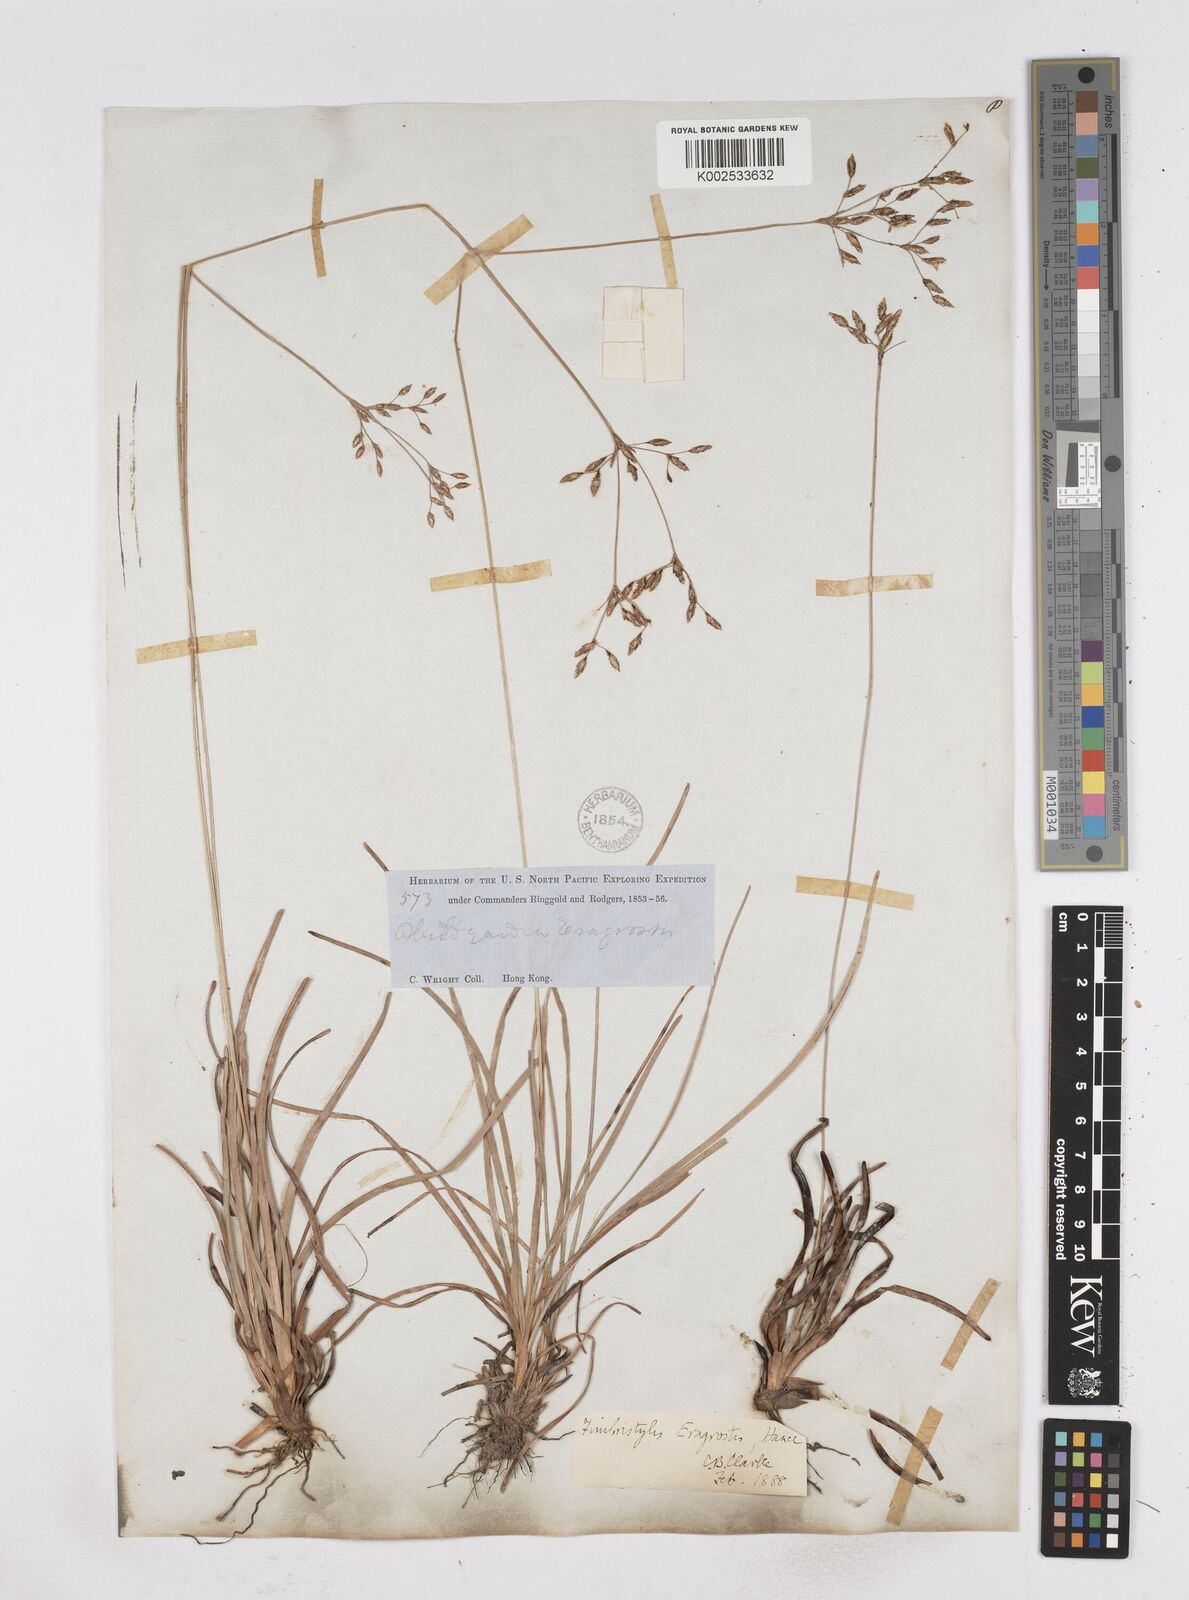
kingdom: Plantae
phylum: Tracheophyta
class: Liliopsida
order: Poales
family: Cyperaceae
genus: Fimbristylis
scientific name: Fimbristylis eragrostis
